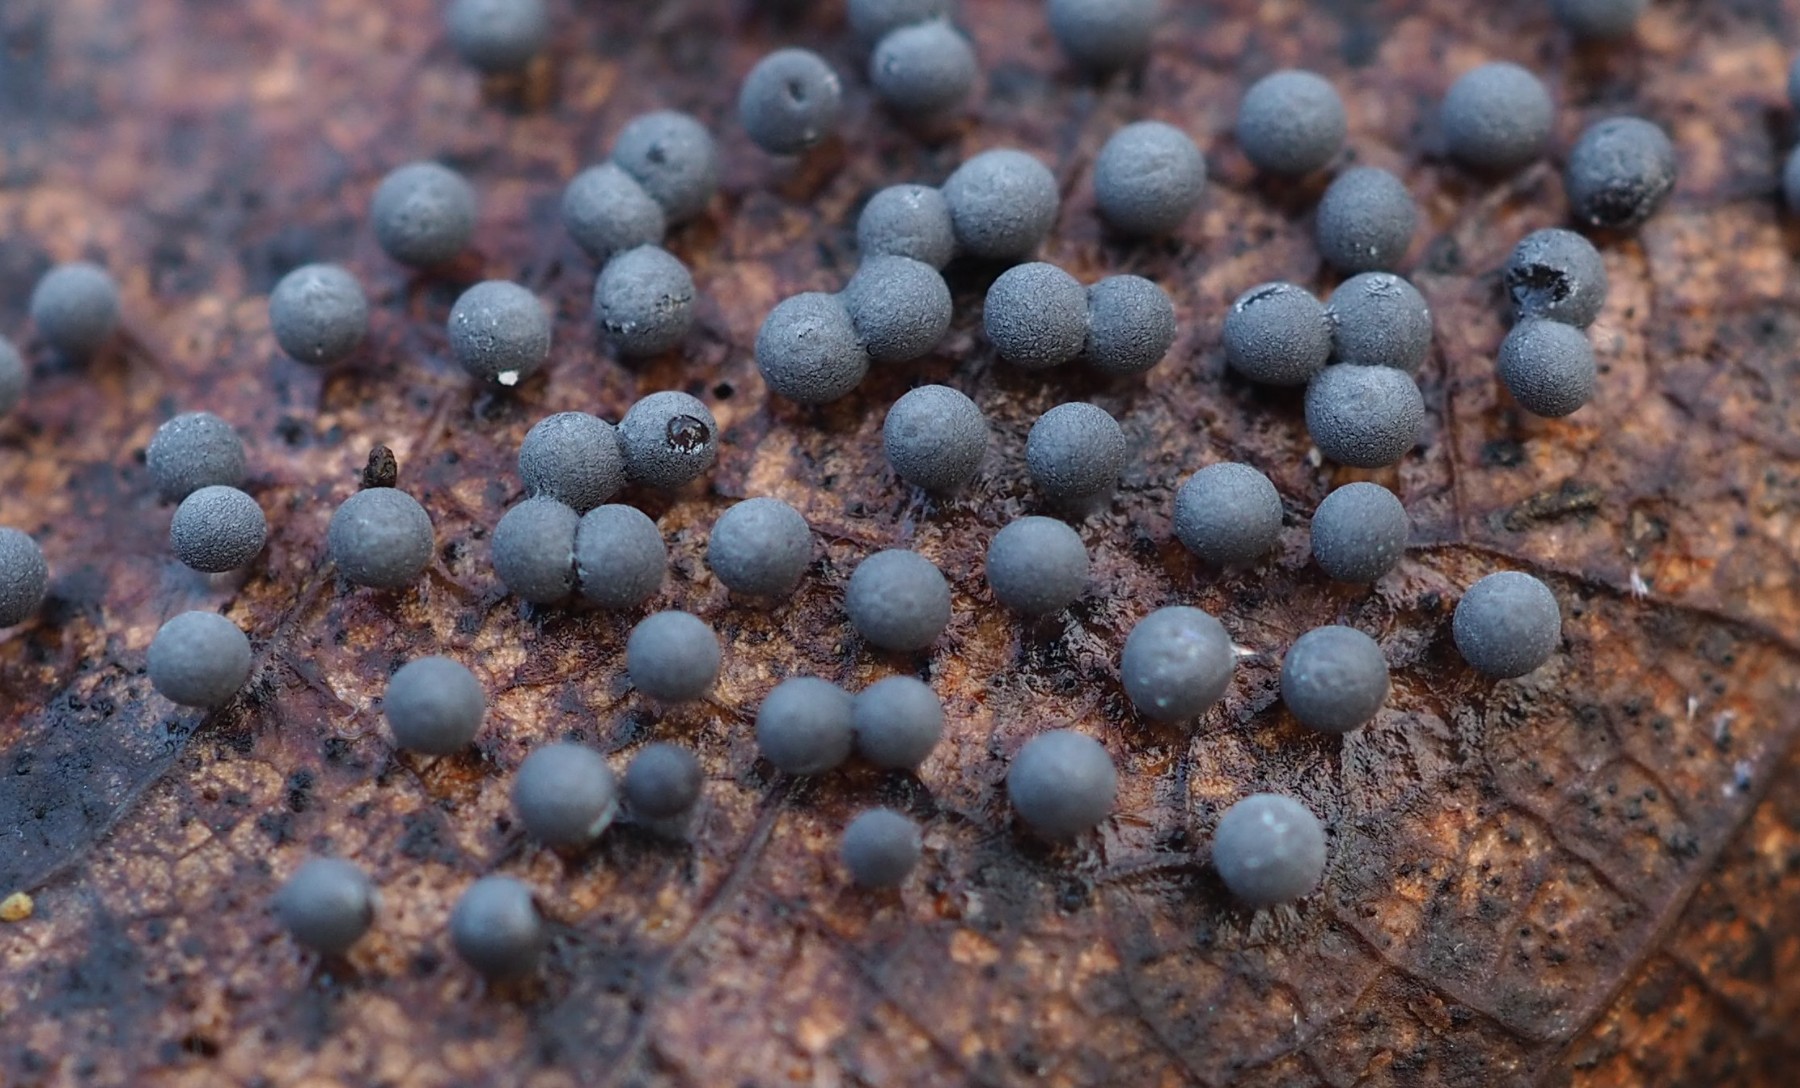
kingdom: Protozoa
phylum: Mycetozoa
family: Didymiidae
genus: Didymium
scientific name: Didymium
